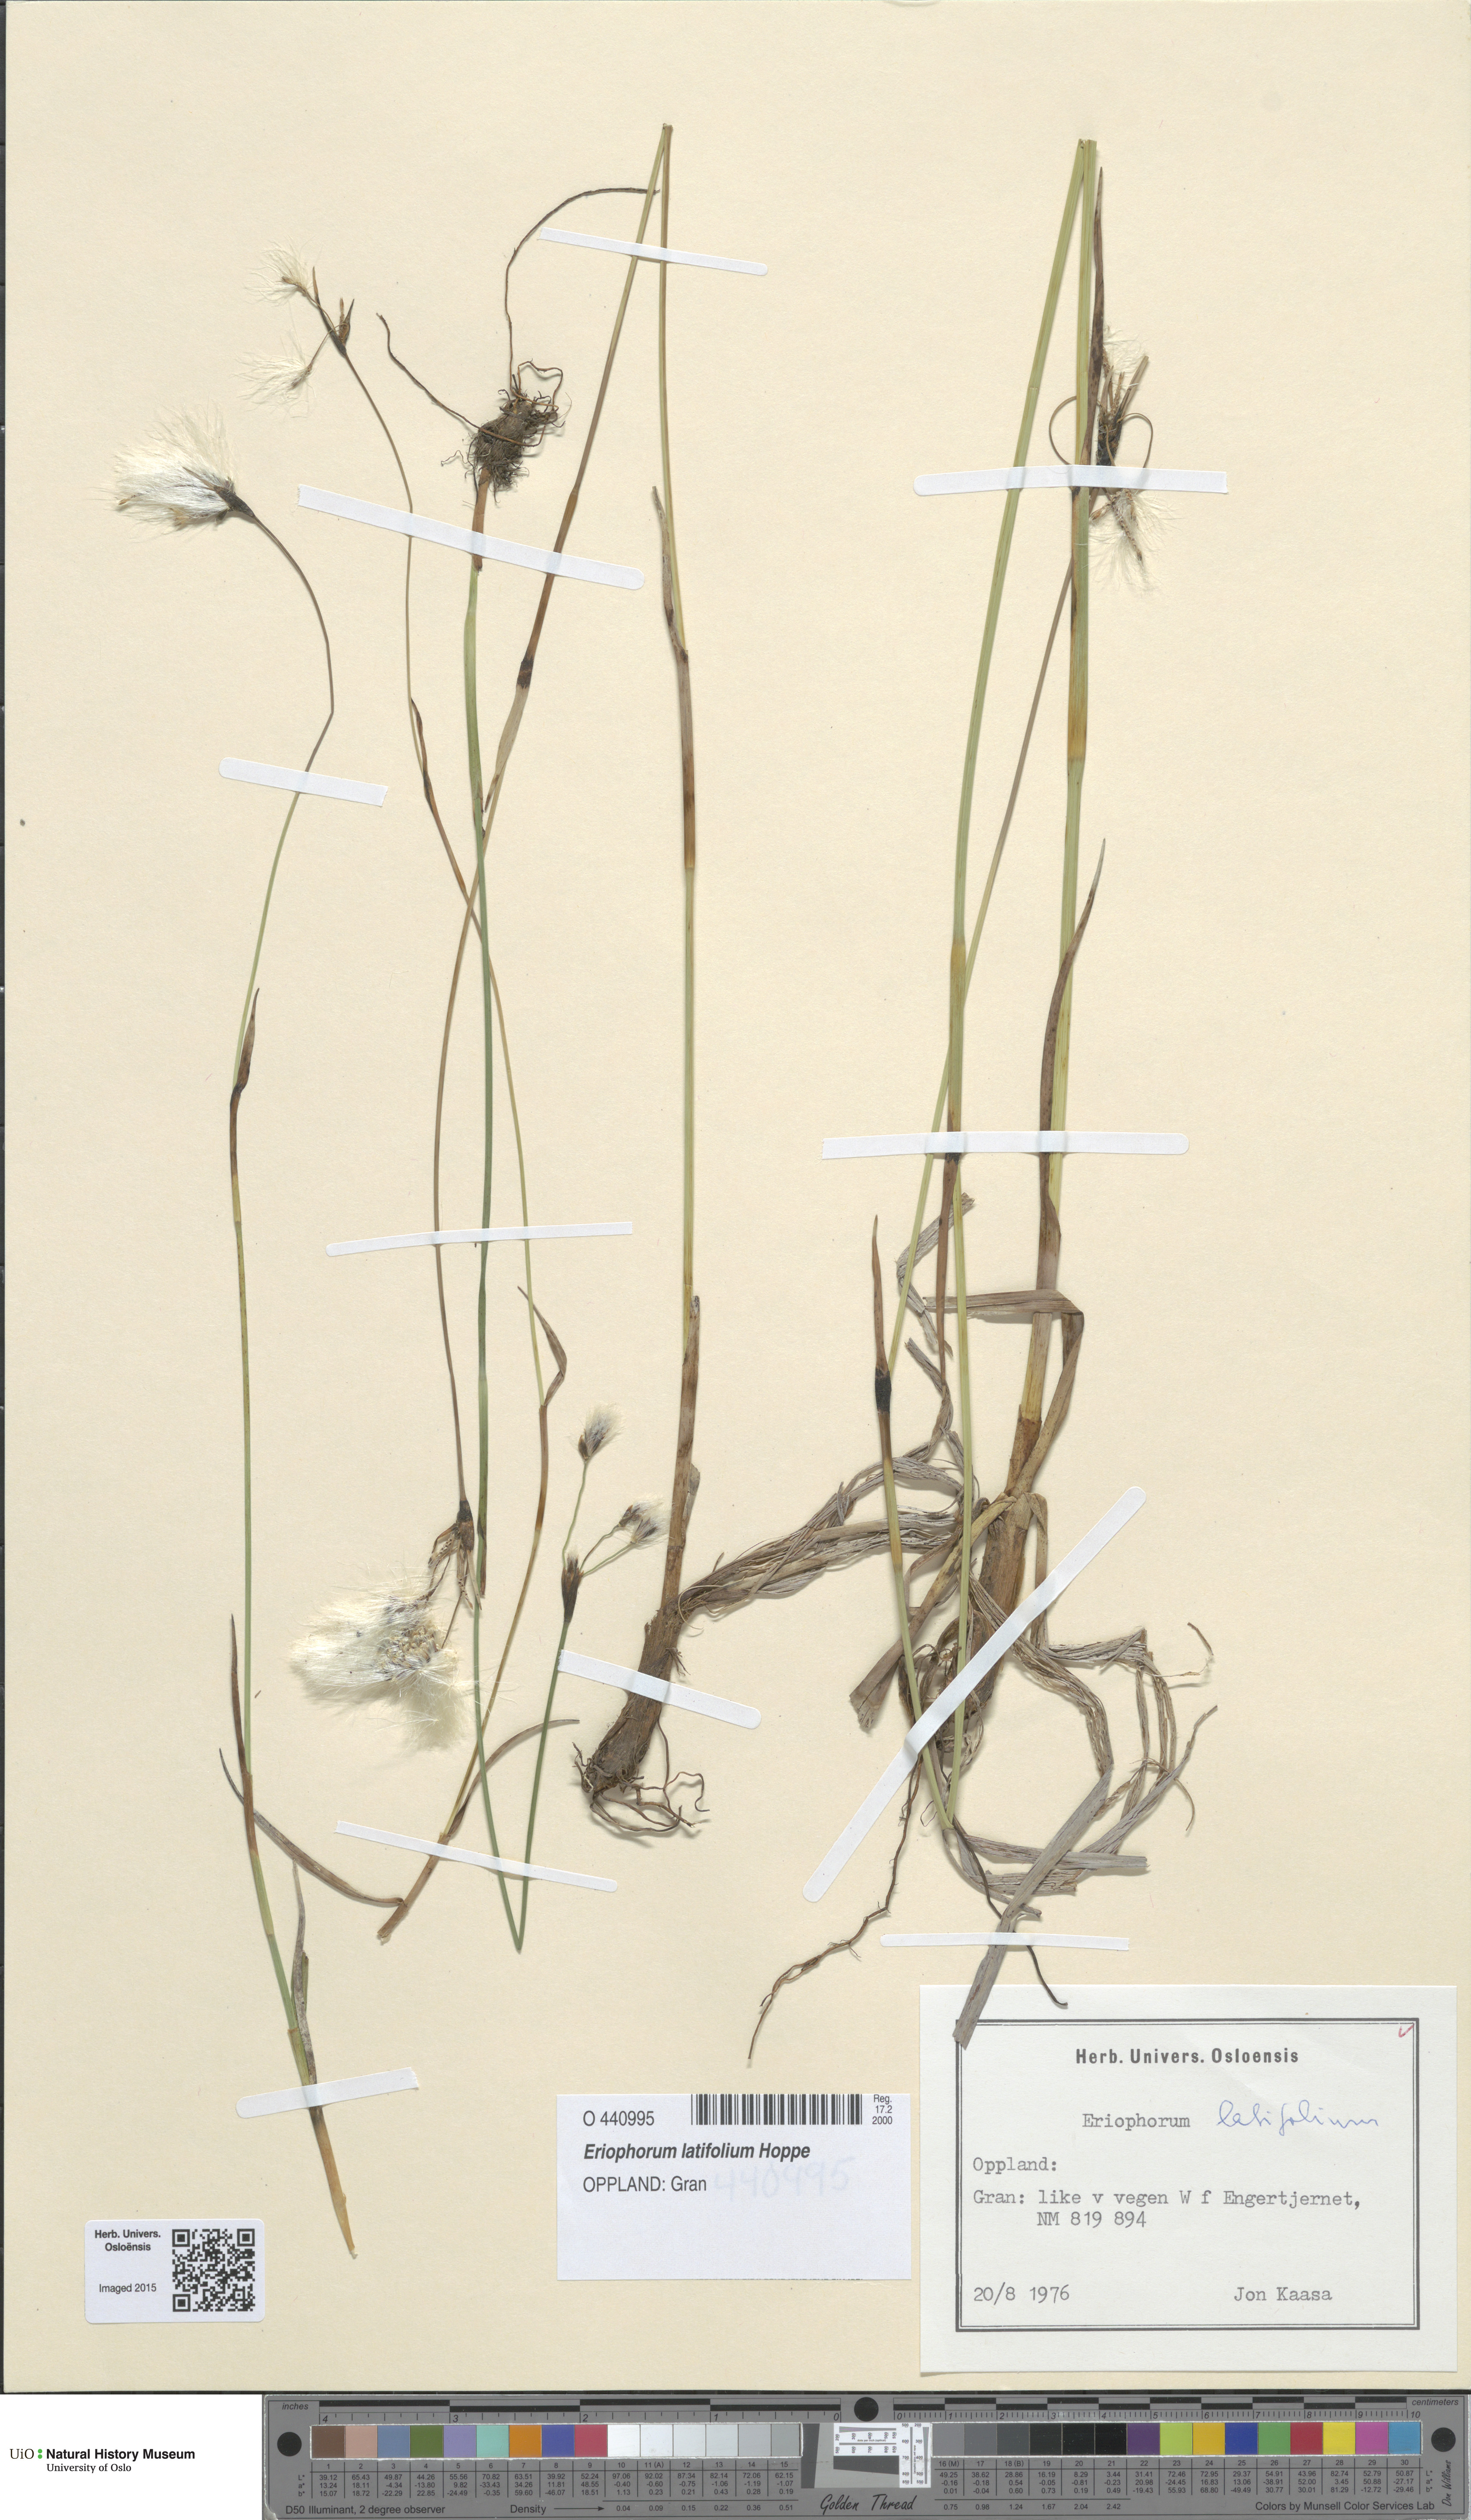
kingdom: Plantae
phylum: Tracheophyta
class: Liliopsida
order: Poales
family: Cyperaceae
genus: Eriophorum
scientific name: Eriophorum latifolium
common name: Broad-leaved cottongrass
